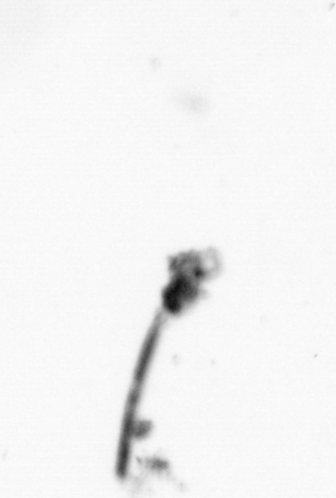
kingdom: Animalia
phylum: Arthropoda
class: Copepoda
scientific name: Copepoda
